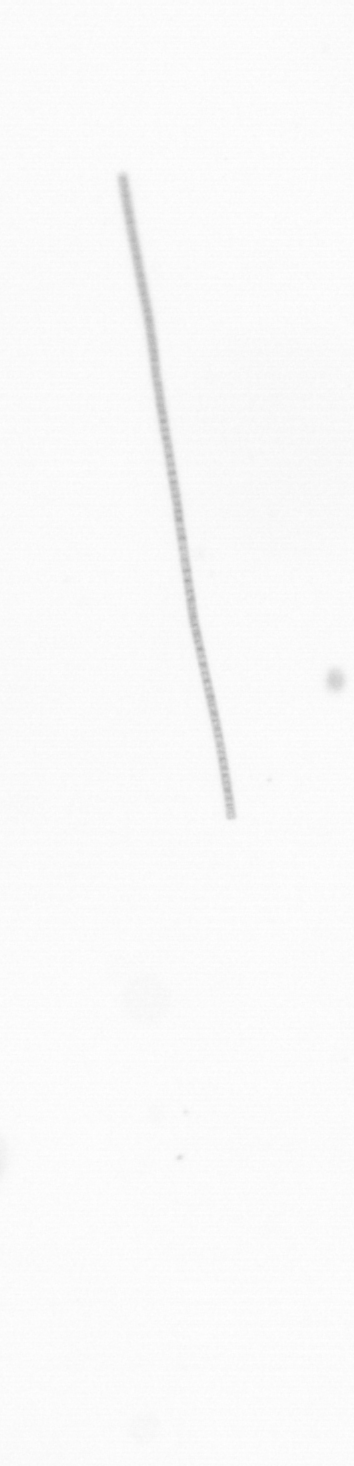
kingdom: Chromista
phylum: Ochrophyta
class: Bacillariophyceae
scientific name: Bacillariophyceae
